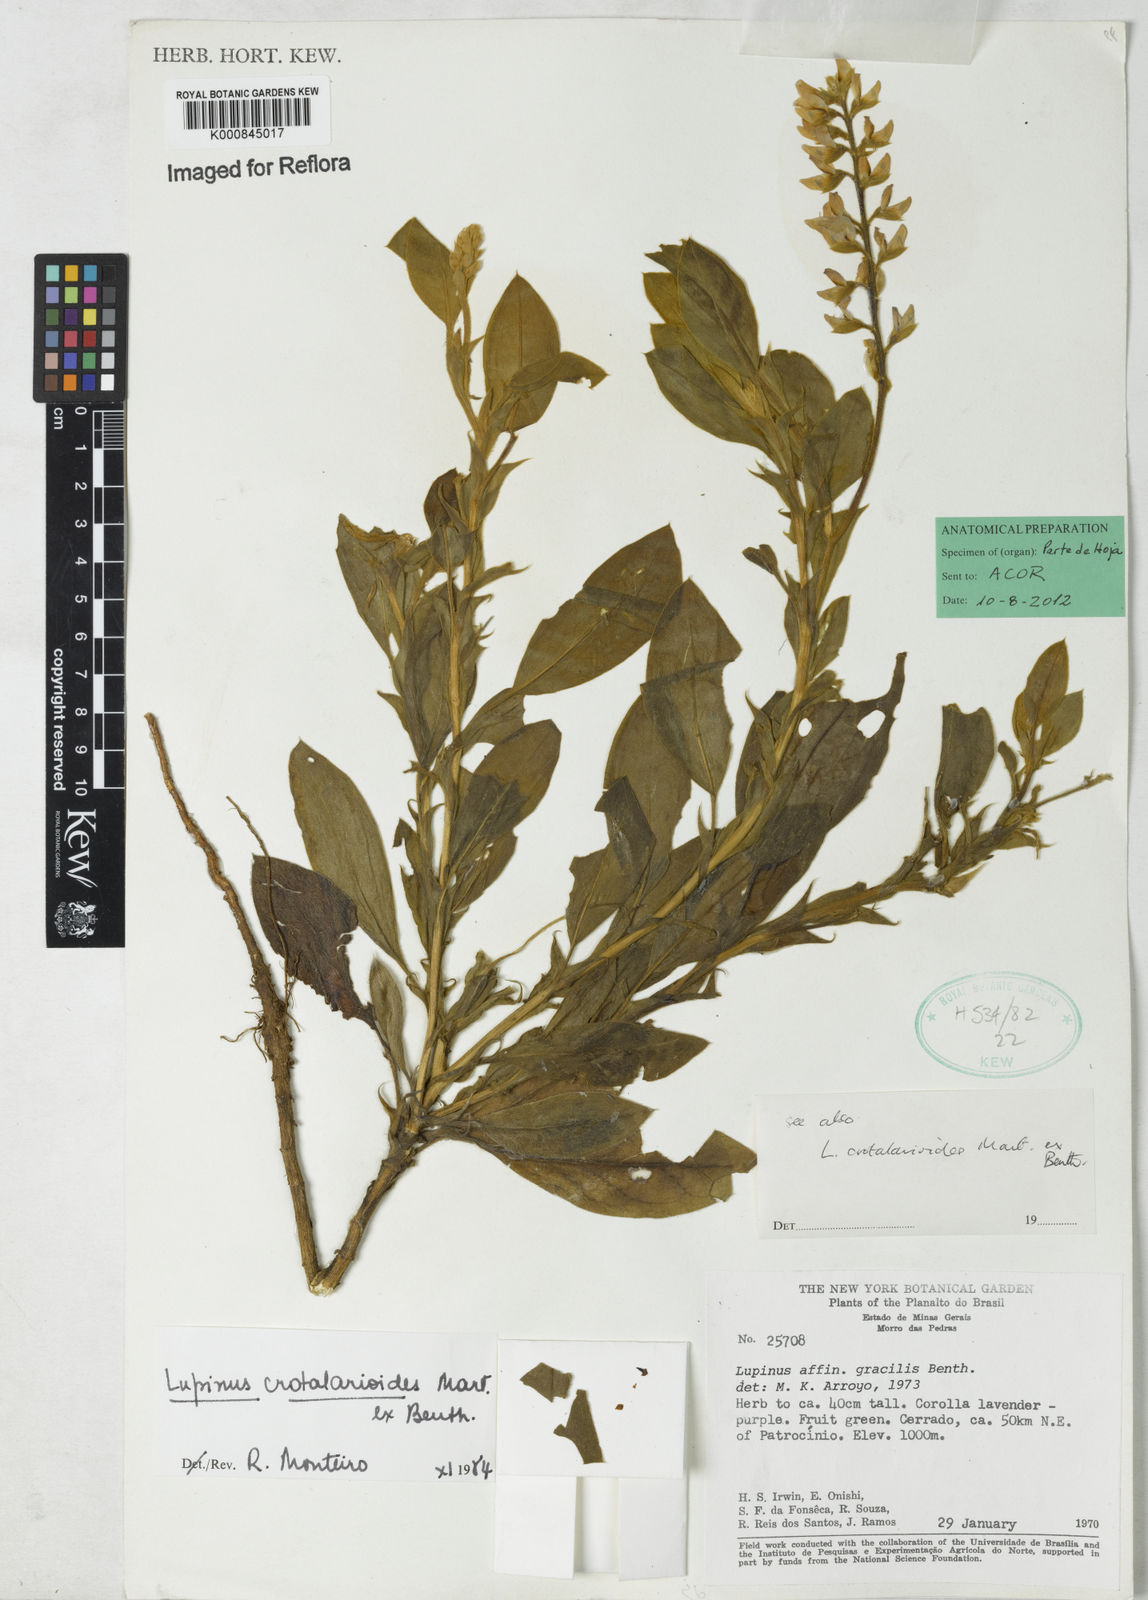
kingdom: Plantae
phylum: Tracheophyta
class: Magnoliopsida
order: Fabales
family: Fabaceae
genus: Lupinus
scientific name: Lupinus crotalarioides
